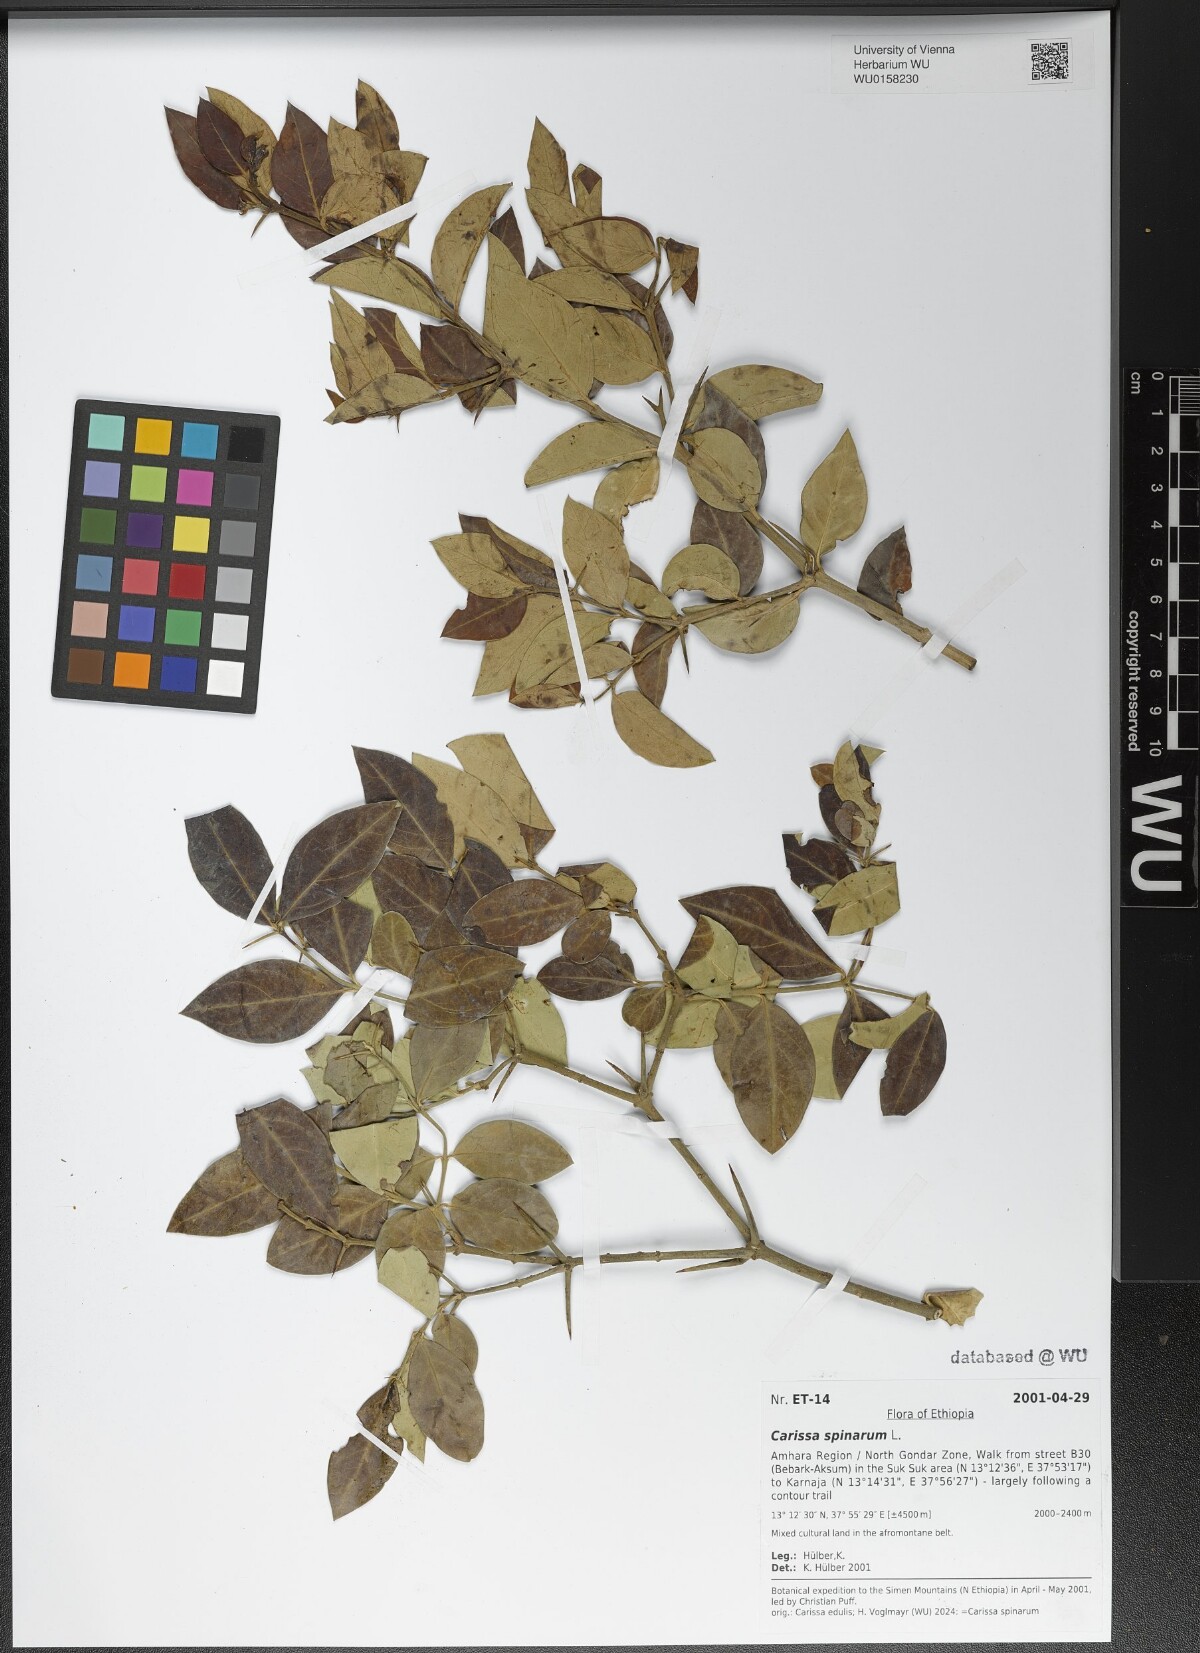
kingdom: Plantae
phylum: Tracheophyta
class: Magnoliopsida
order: Gentianales
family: Apocynaceae
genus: Carissa
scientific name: Carissa spinarum
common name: Egyptian carissa
